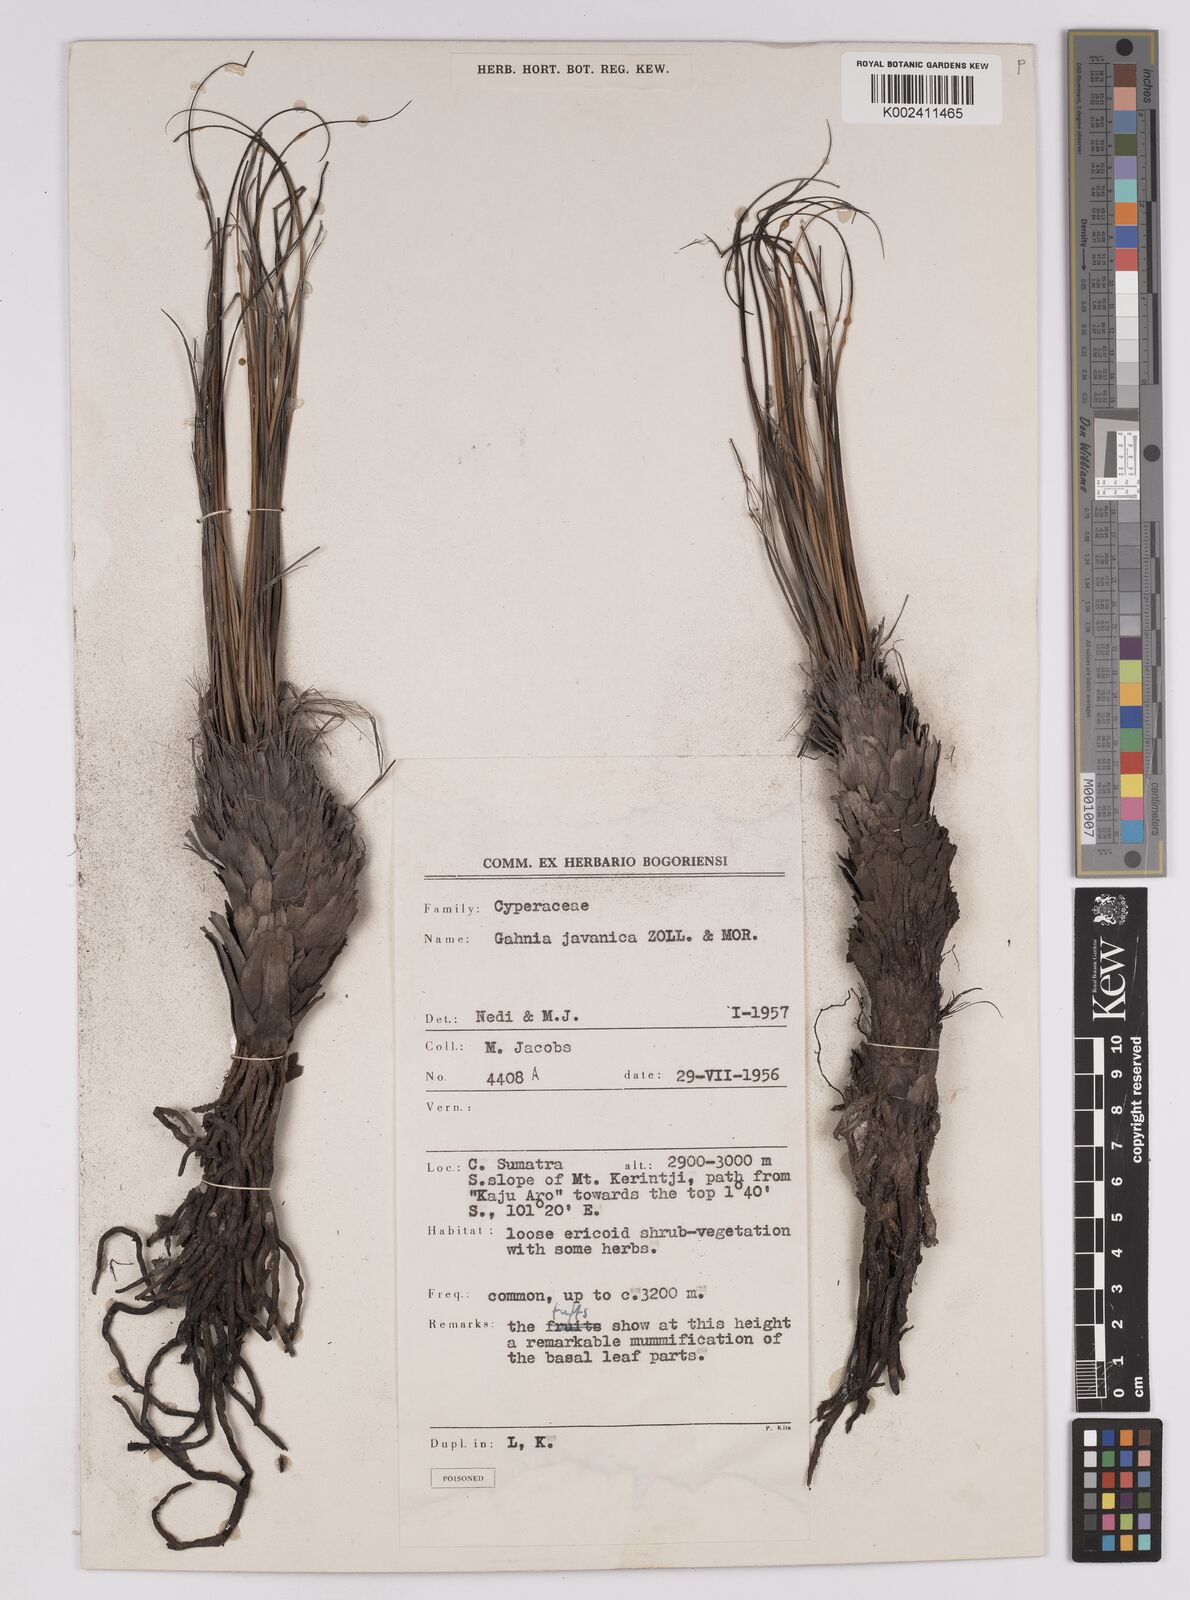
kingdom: Plantae
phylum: Tracheophyta
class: Liliopsida
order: Poales
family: Cyperaceae
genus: Gahnia
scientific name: Gahnia javanica
